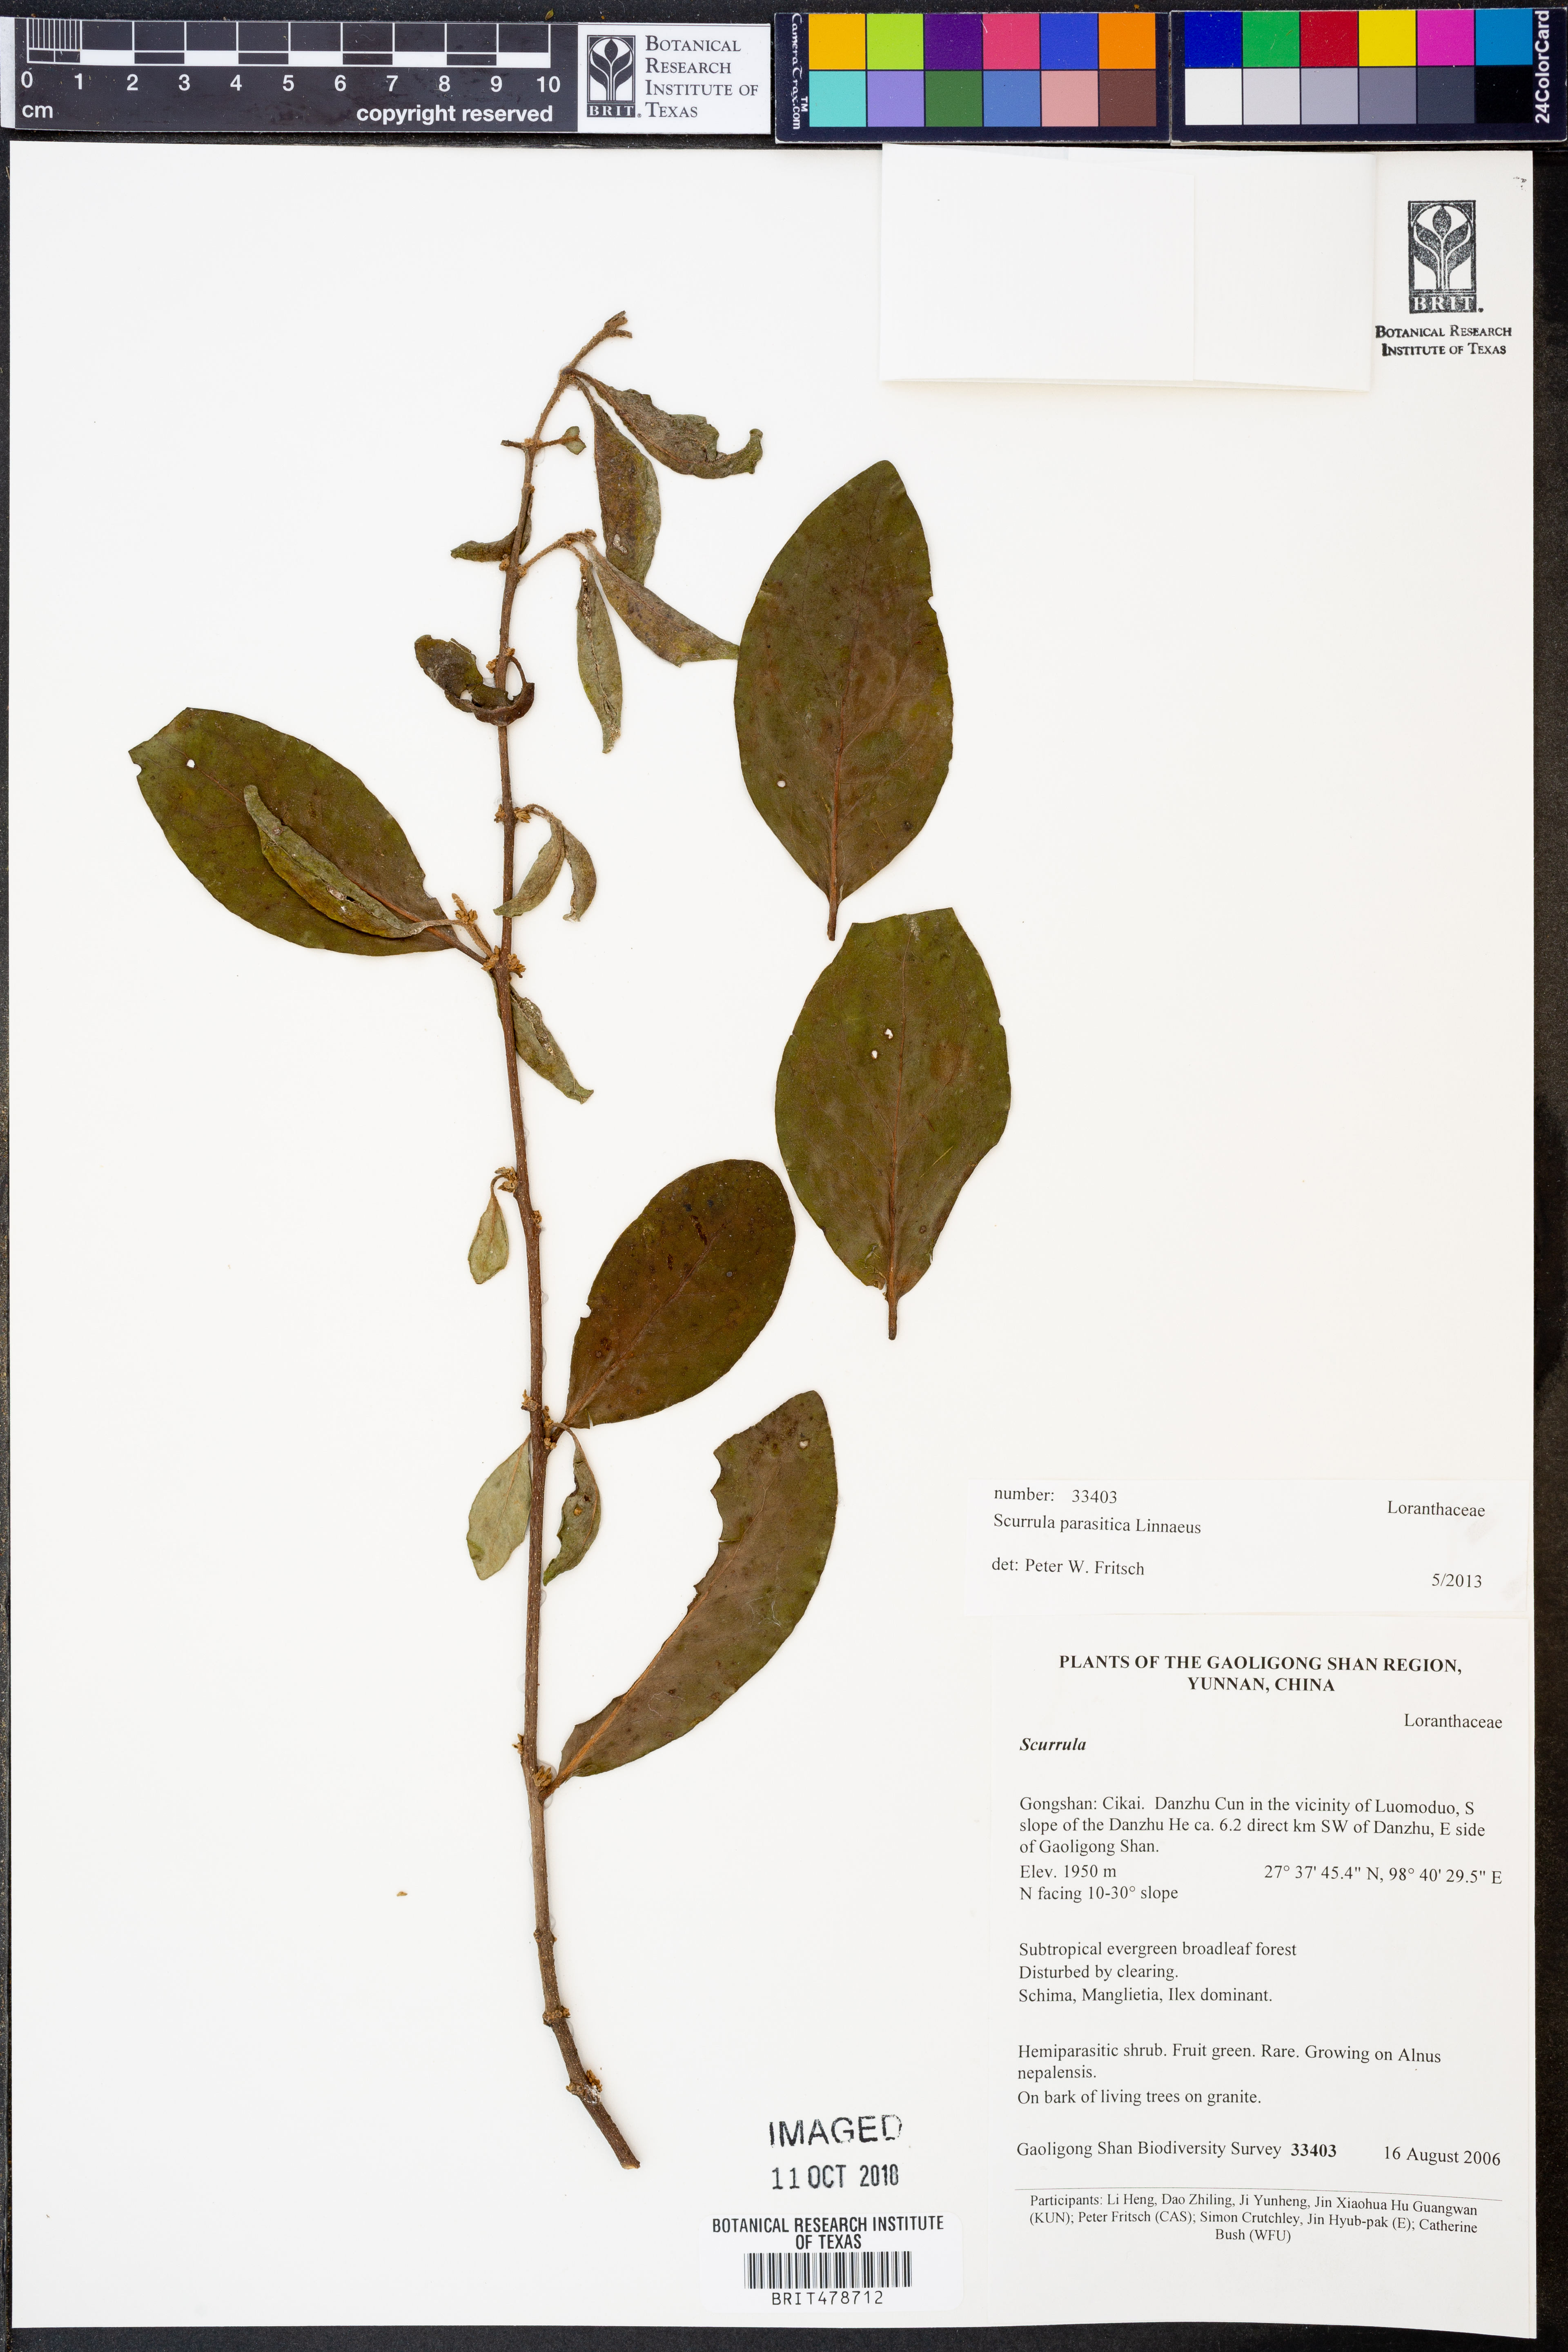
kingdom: Plantae
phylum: Tracheophyta
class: Magnoliopsida
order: Santalales
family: Loranthaceae
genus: Scurrula
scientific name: Scurrula parasitica
